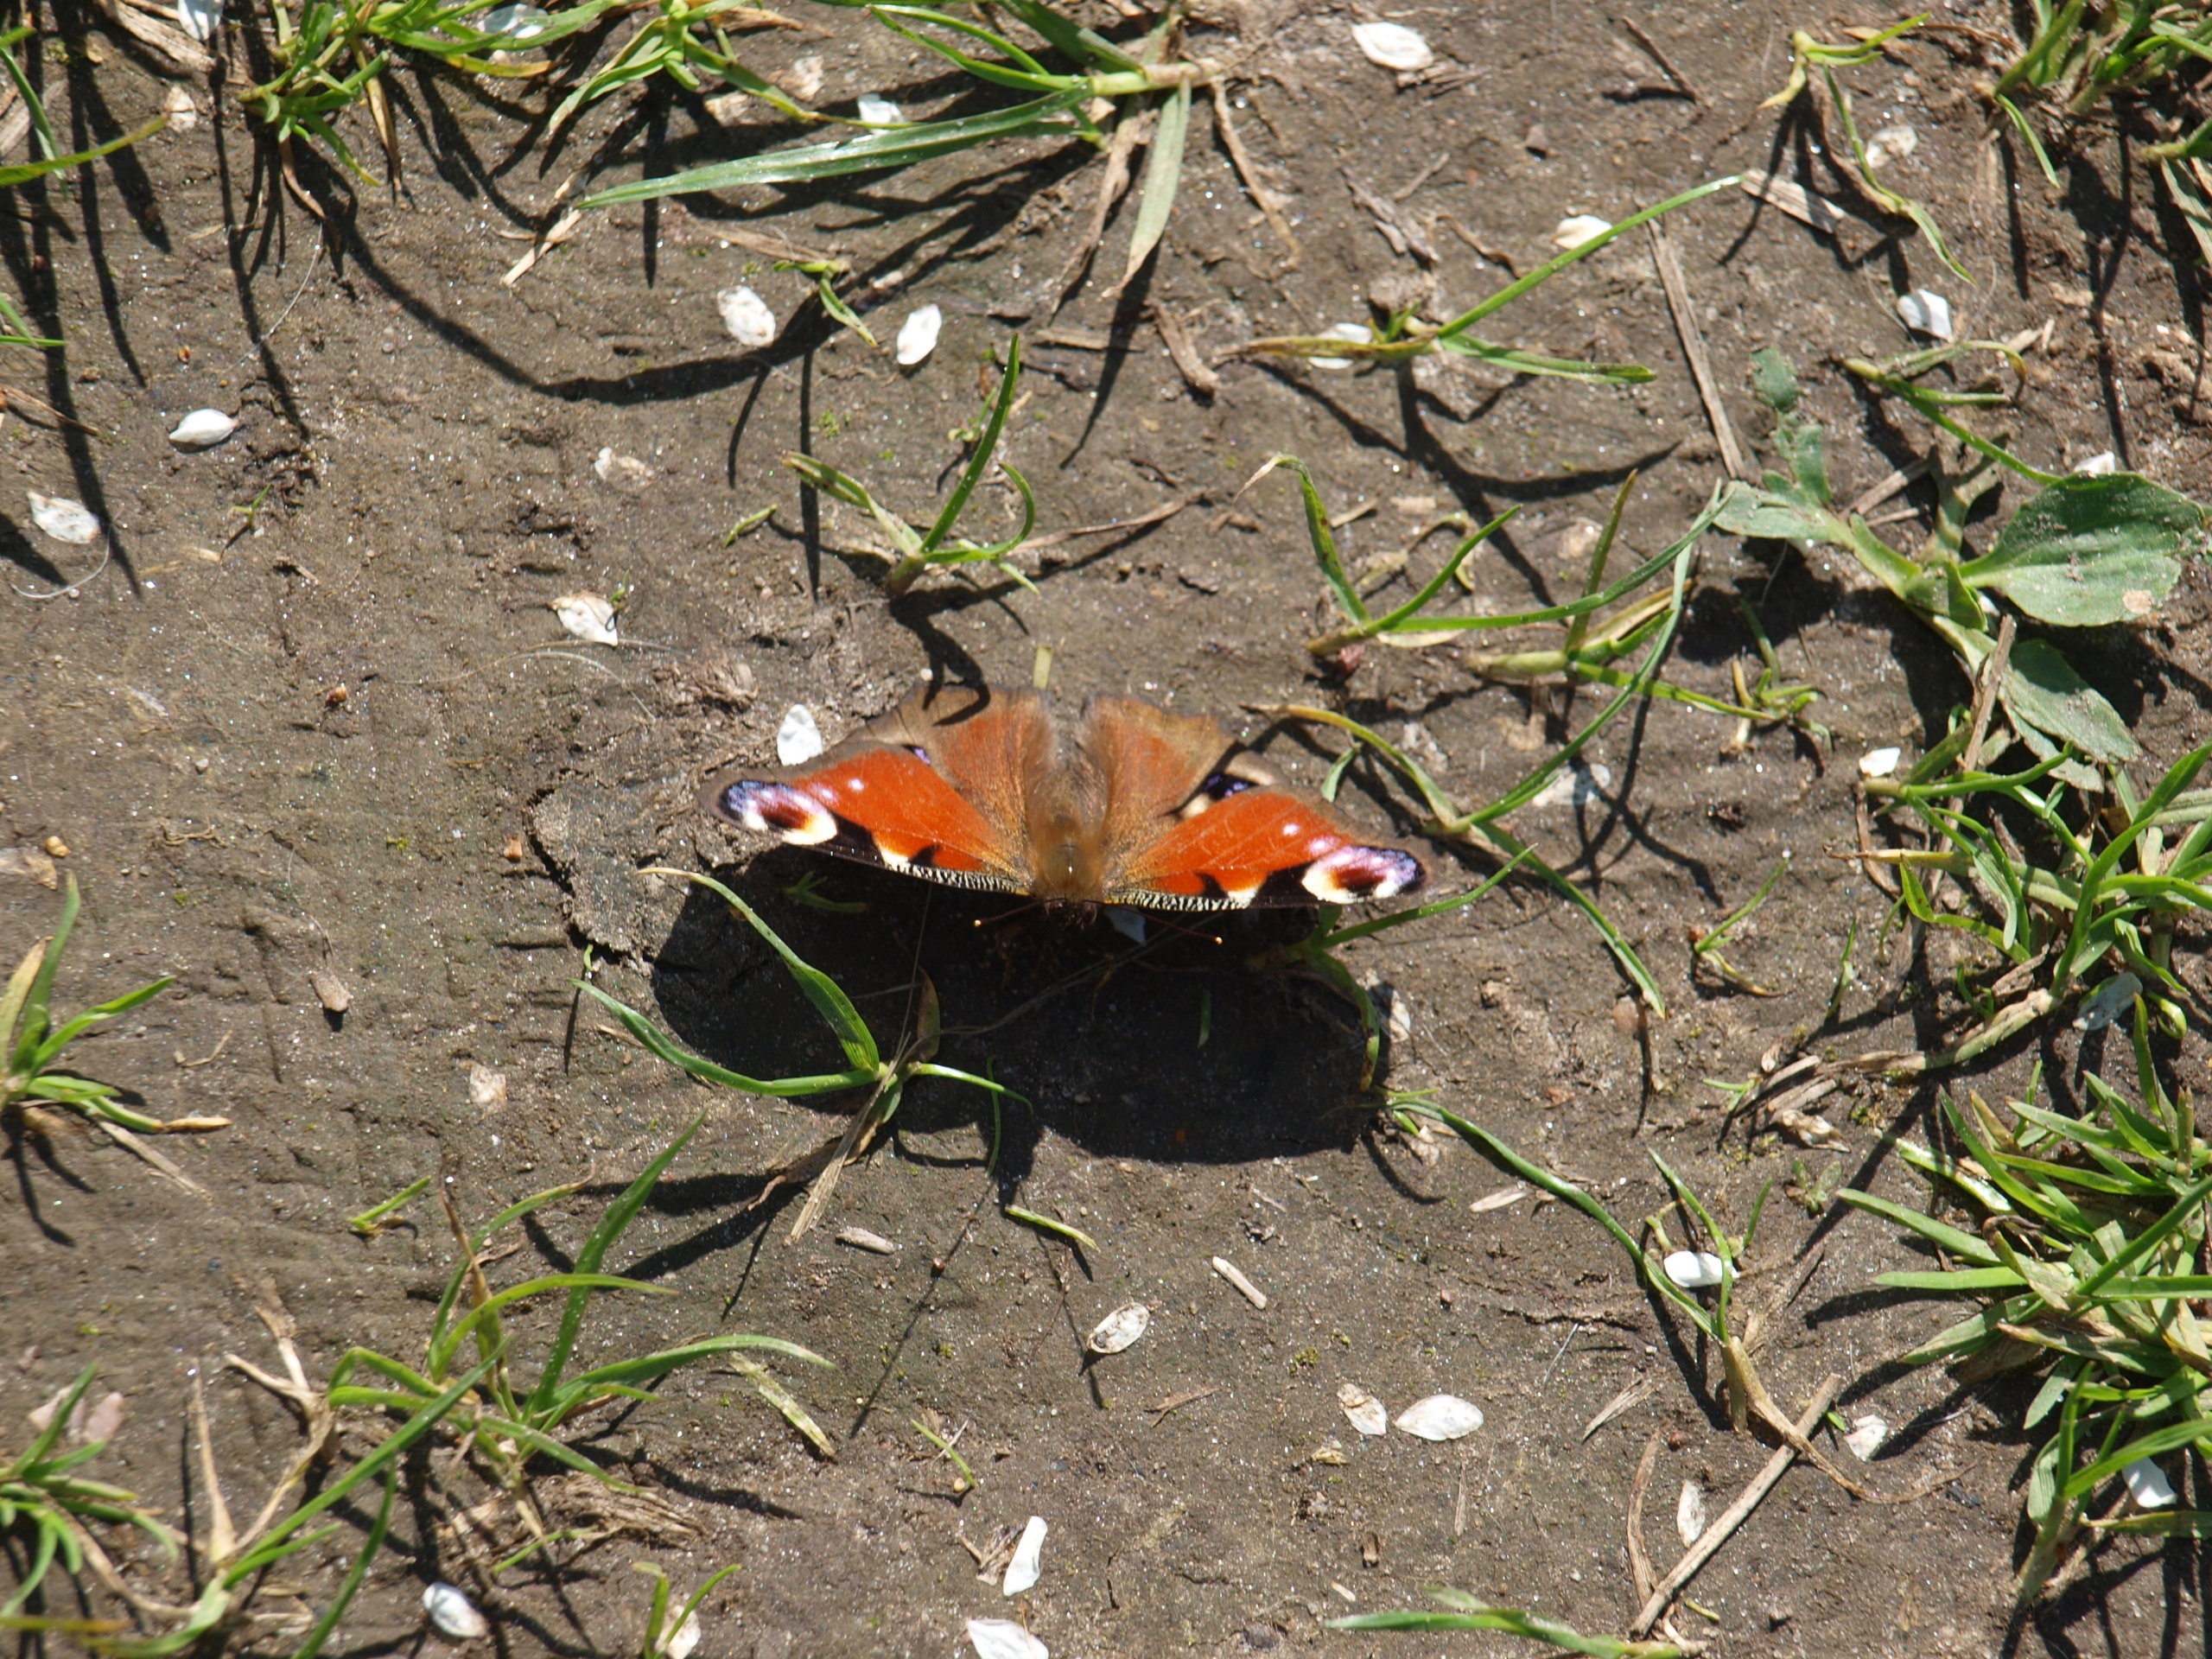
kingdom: Animalia
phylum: Arthropoda
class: Insecta
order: Lepidoptera
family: Nymphalidae
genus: Aglais
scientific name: Aglais io
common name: Dagpåfugleøje
